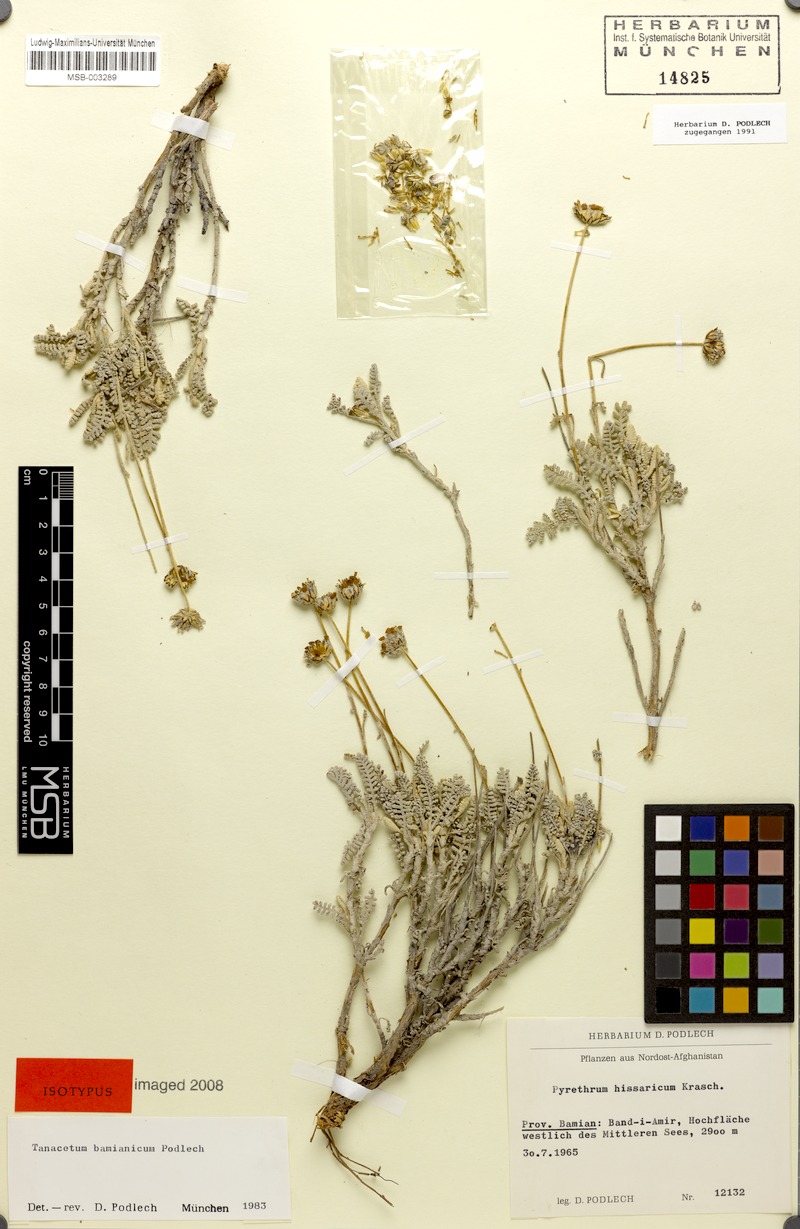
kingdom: Plantae
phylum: Tracheophyta
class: Magnoliopsida
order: Asterales
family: Asteraceae
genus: Tanacetum
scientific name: Tanacetum bamianicum
